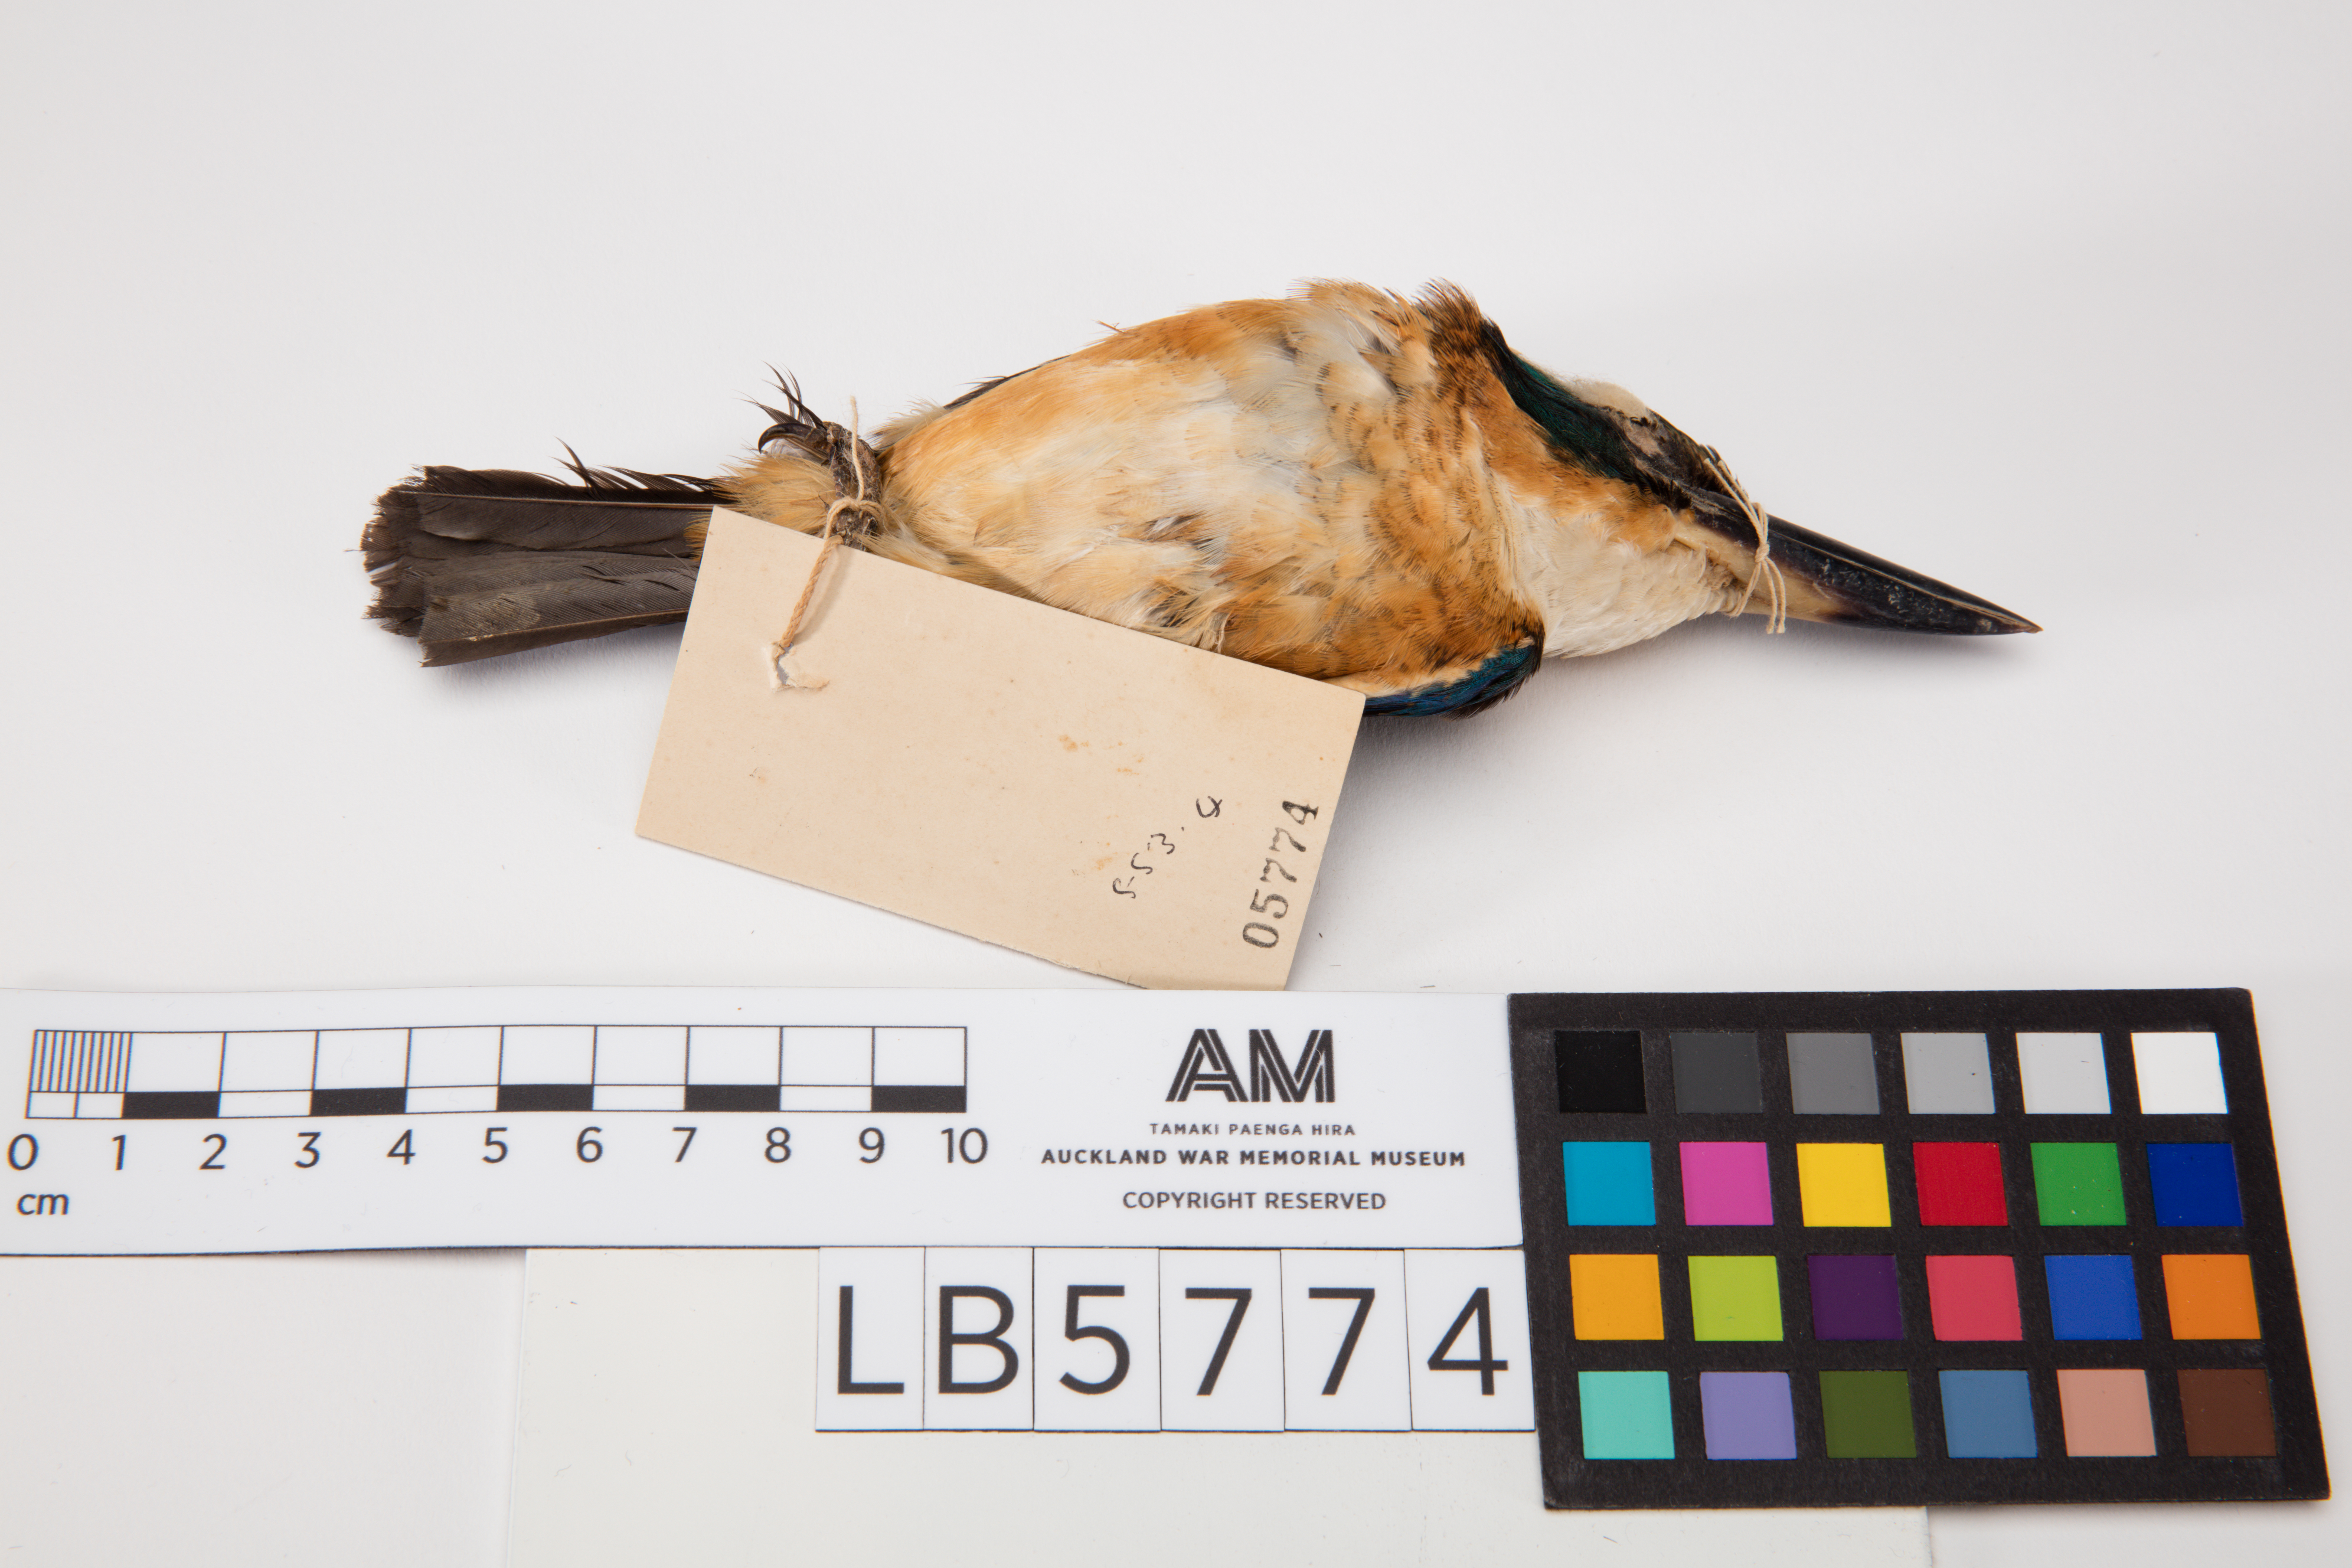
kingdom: Animalia
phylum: Chordata
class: Aves
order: Coraciiformes
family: Alcedinidae
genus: Todiramphus
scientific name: Todiramphus chloris
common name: Collared kingfisher
